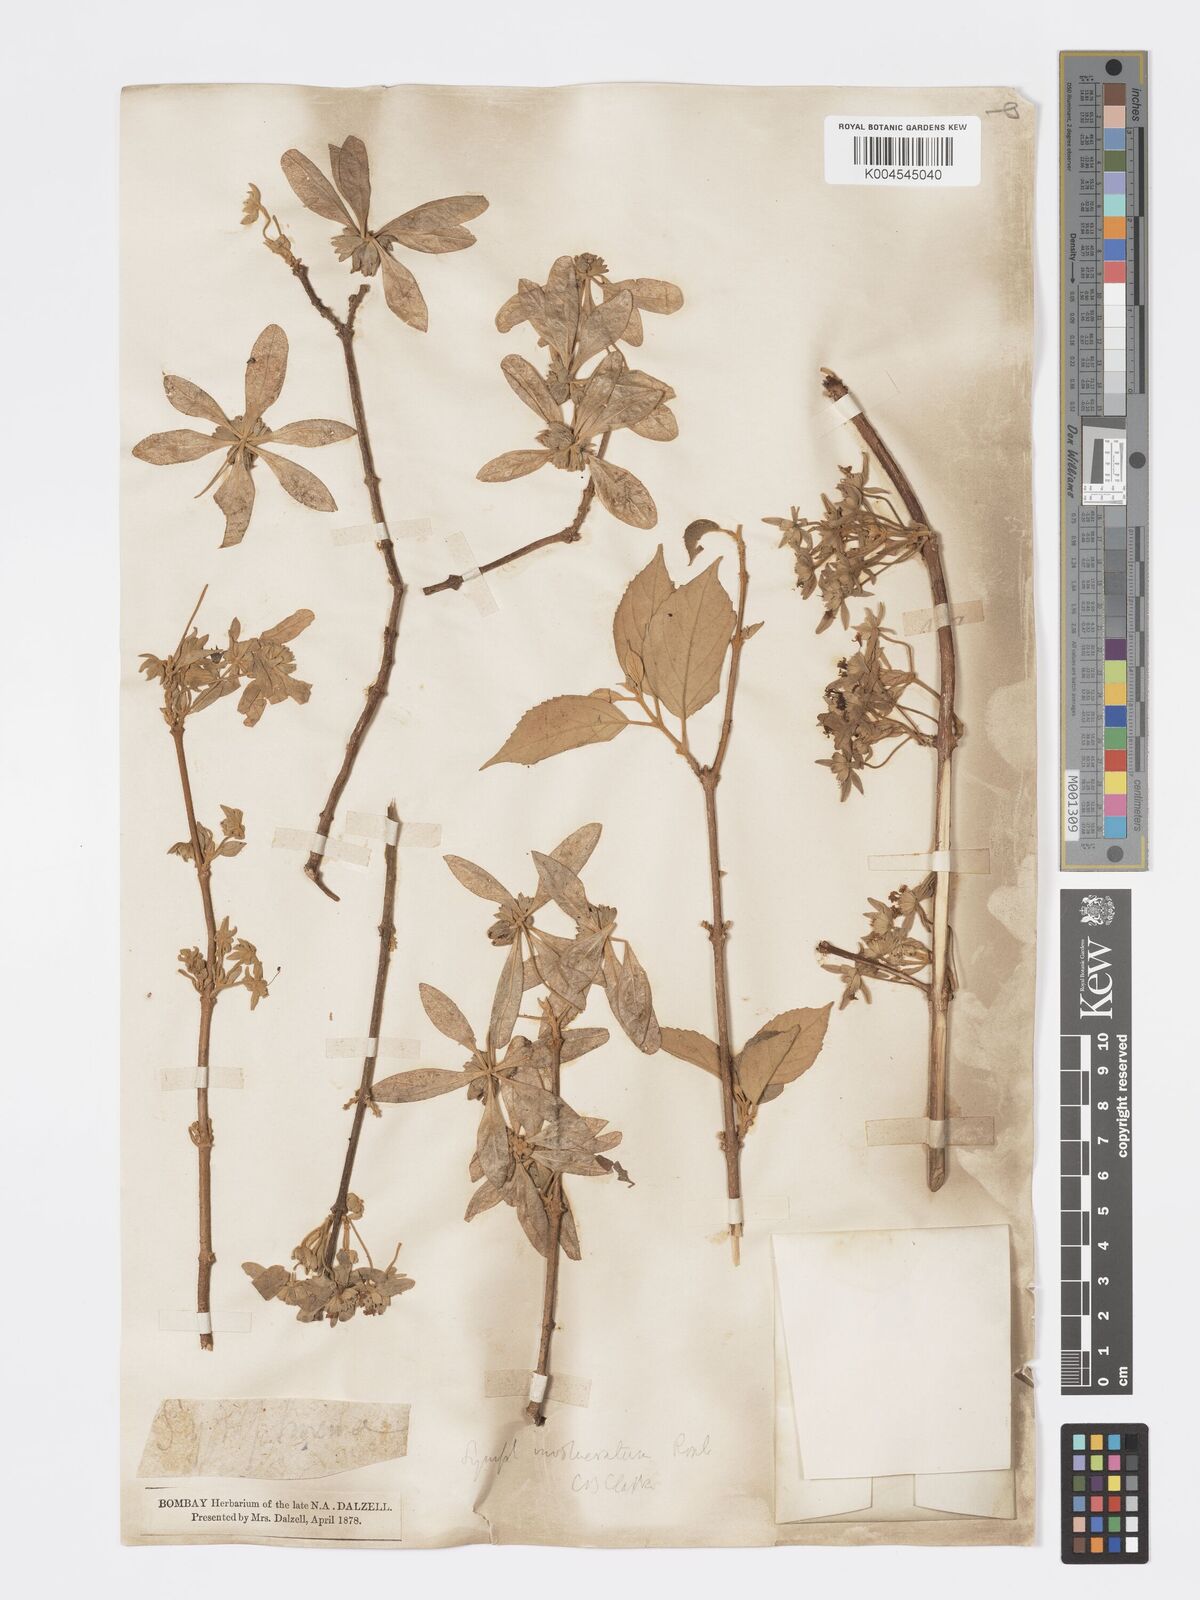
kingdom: Plantae
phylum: Tracheophyta
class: Magnoliopsida
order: Lamiales
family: Lamiaceae
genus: Symphorema
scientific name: Symphorema involucratum
